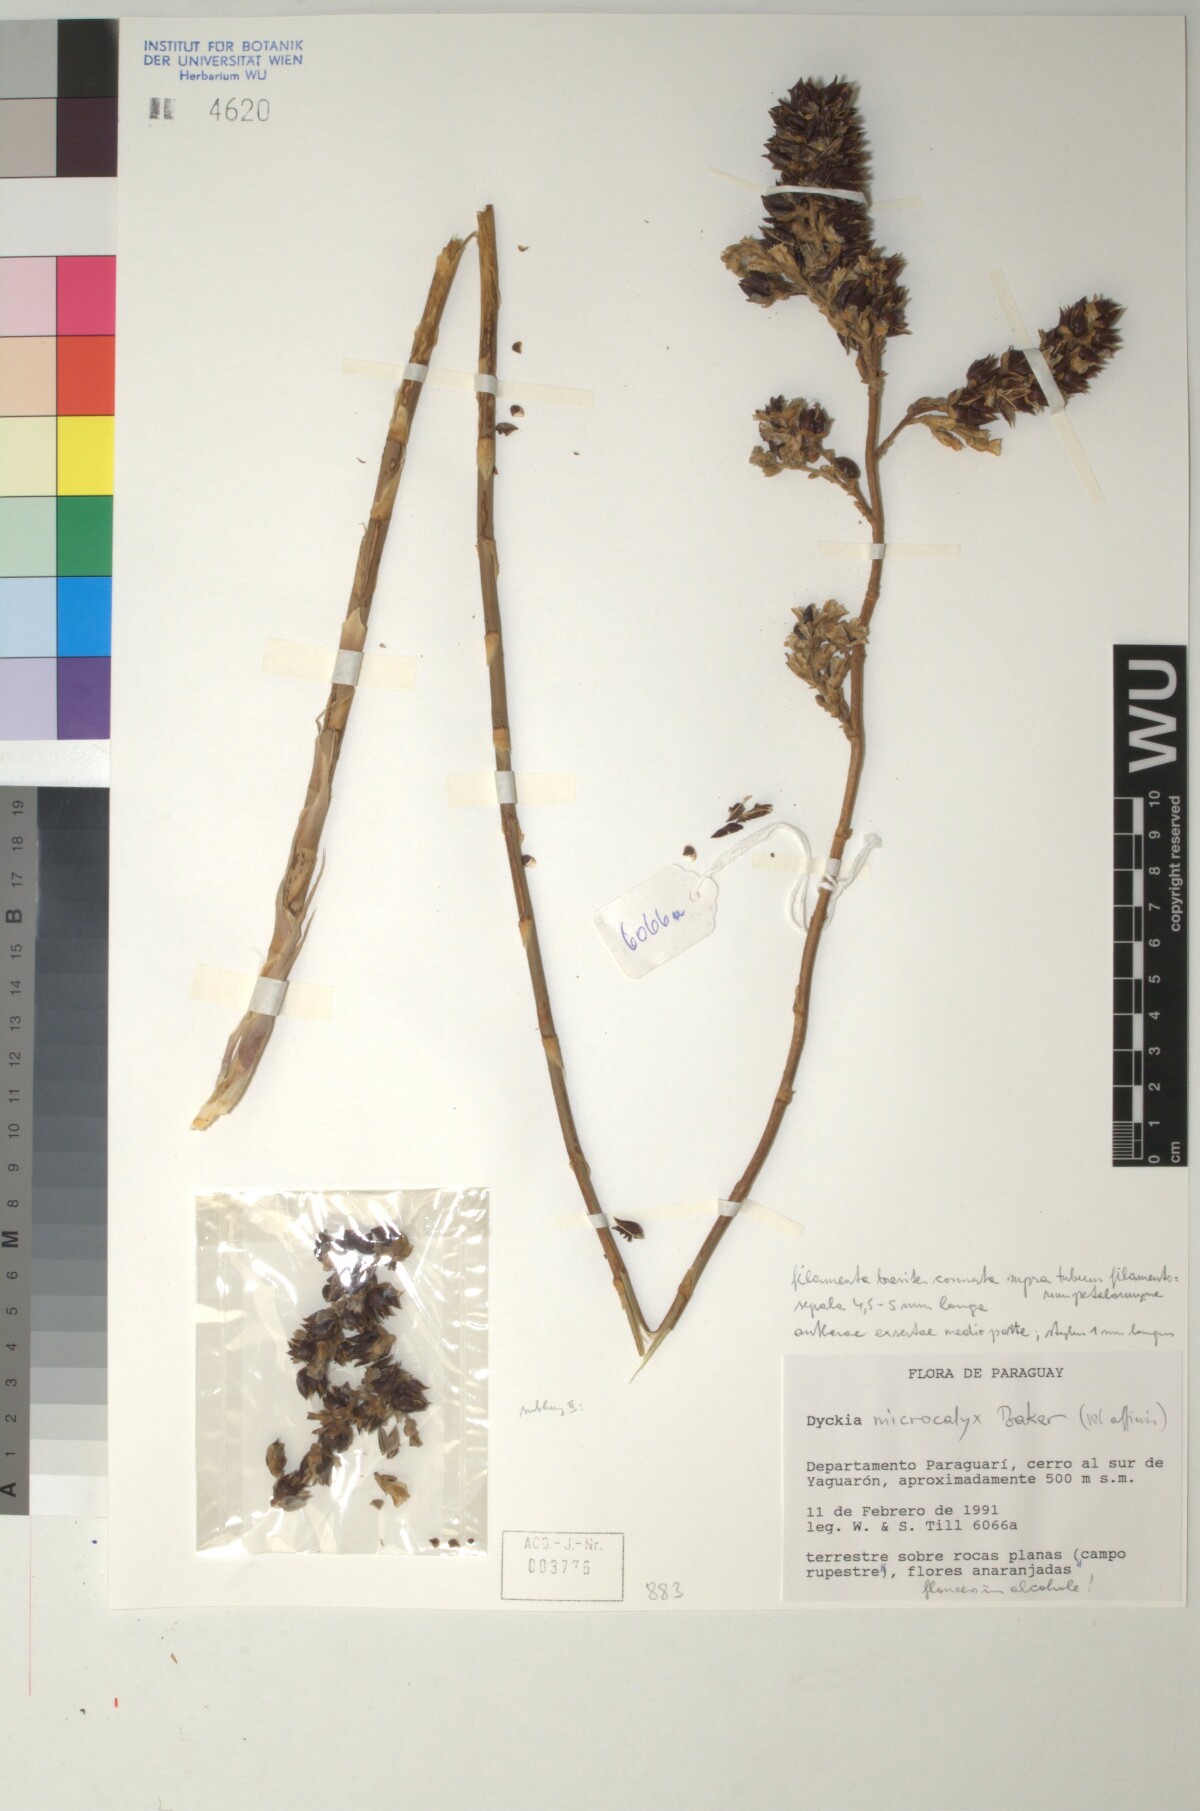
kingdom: Plantae
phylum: Tracheophyta
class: Liliopsida
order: Poales
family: Bromeliaceae
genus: Dyckia
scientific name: Dyckia microcalyx
